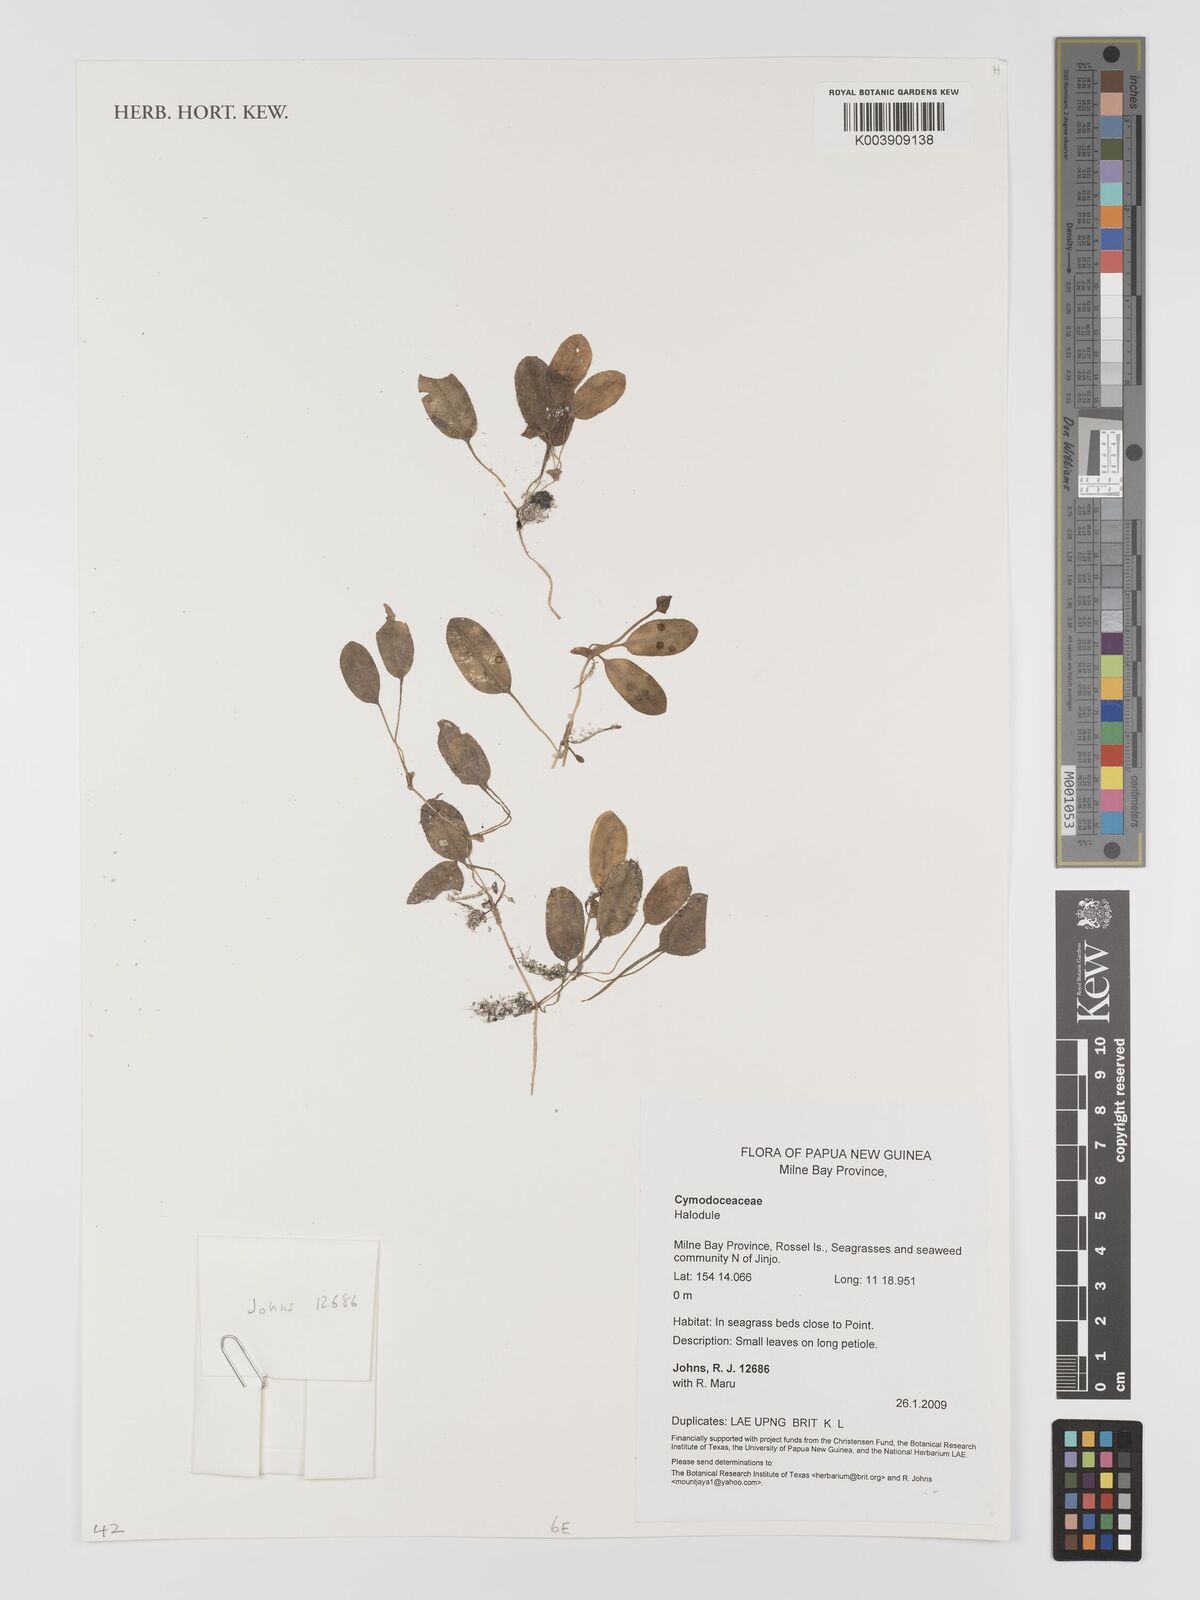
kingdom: Plantae
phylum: Tracheophyta
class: Liliopsida
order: Alismatales
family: Cymodoceaceae
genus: Halodule
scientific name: Halodule
